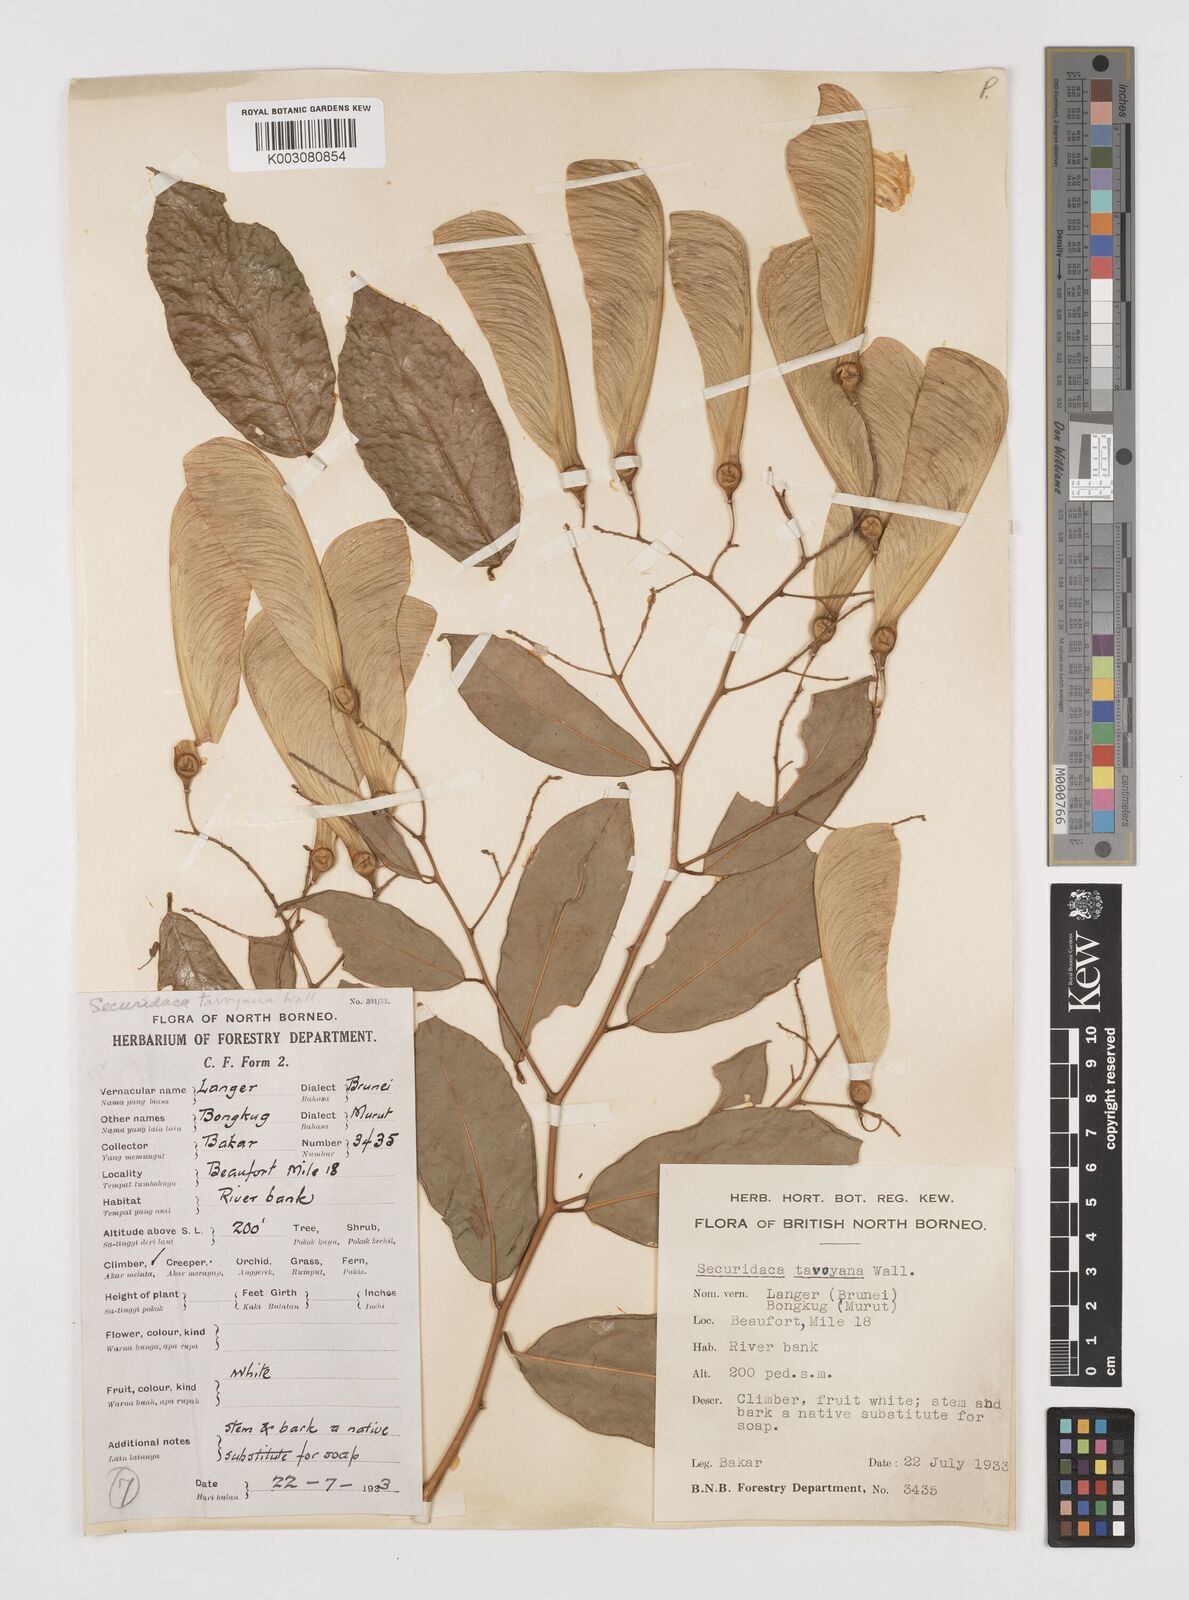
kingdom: Plantae
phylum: Tracheophyta
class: Magnoliopsida
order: Fabales
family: Polygalaceae
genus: Securidaca
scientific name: Securidaca inappendiculata
